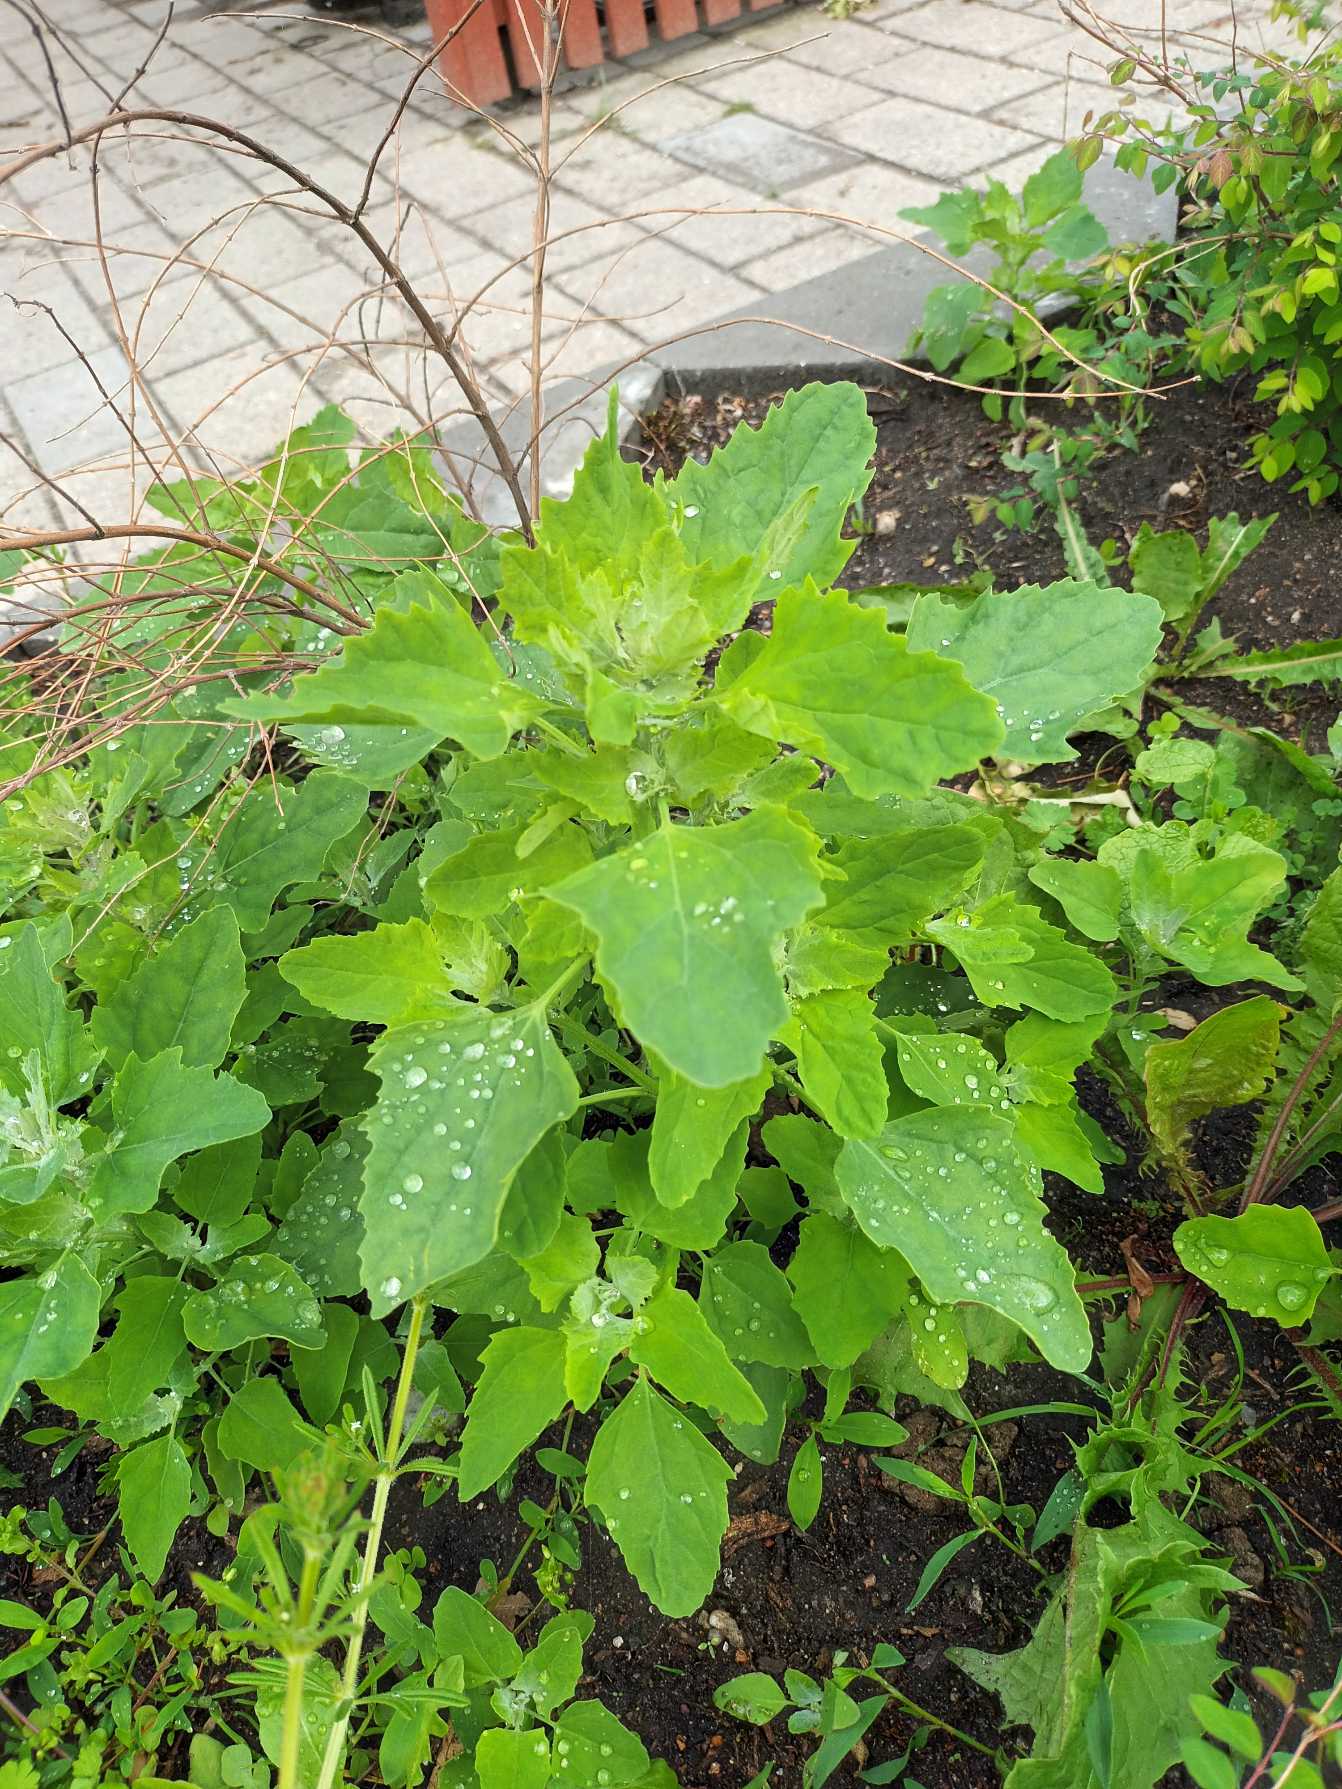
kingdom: Plantae
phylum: Tracheophyta
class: Magnoliopsida
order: Caryophyllales
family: Amaranthaceae
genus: Chenopodium
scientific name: Chenopodium album
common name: Hvidmelet gåsefod
